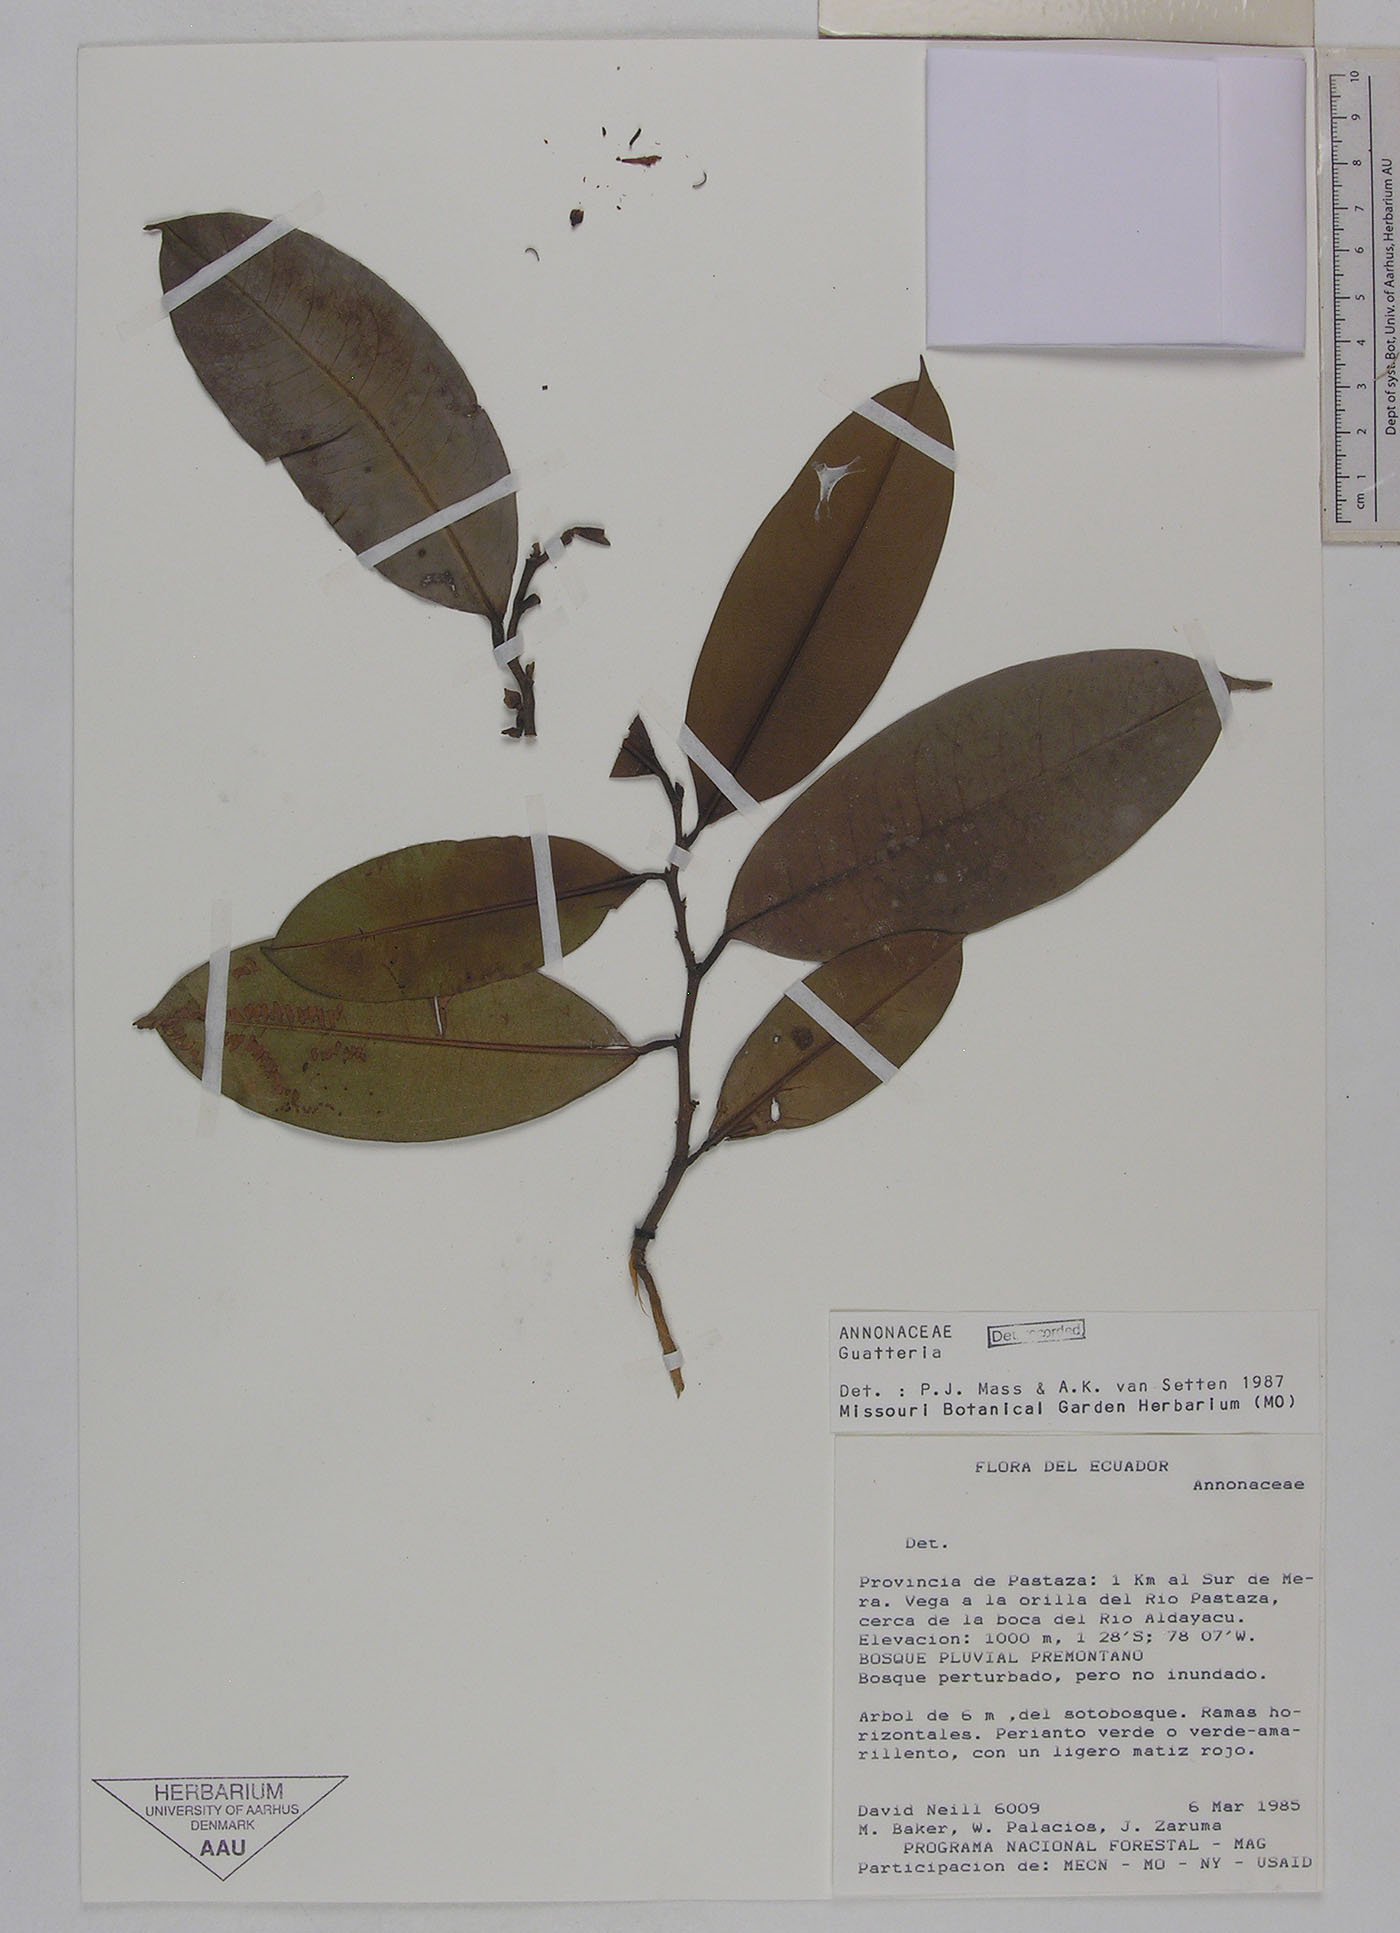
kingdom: Plantae
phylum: Tracheophyta
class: Magnoliopsida
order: Magnoliales
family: Annonaceae
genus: Guatteria
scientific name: Guatteria pastazae
